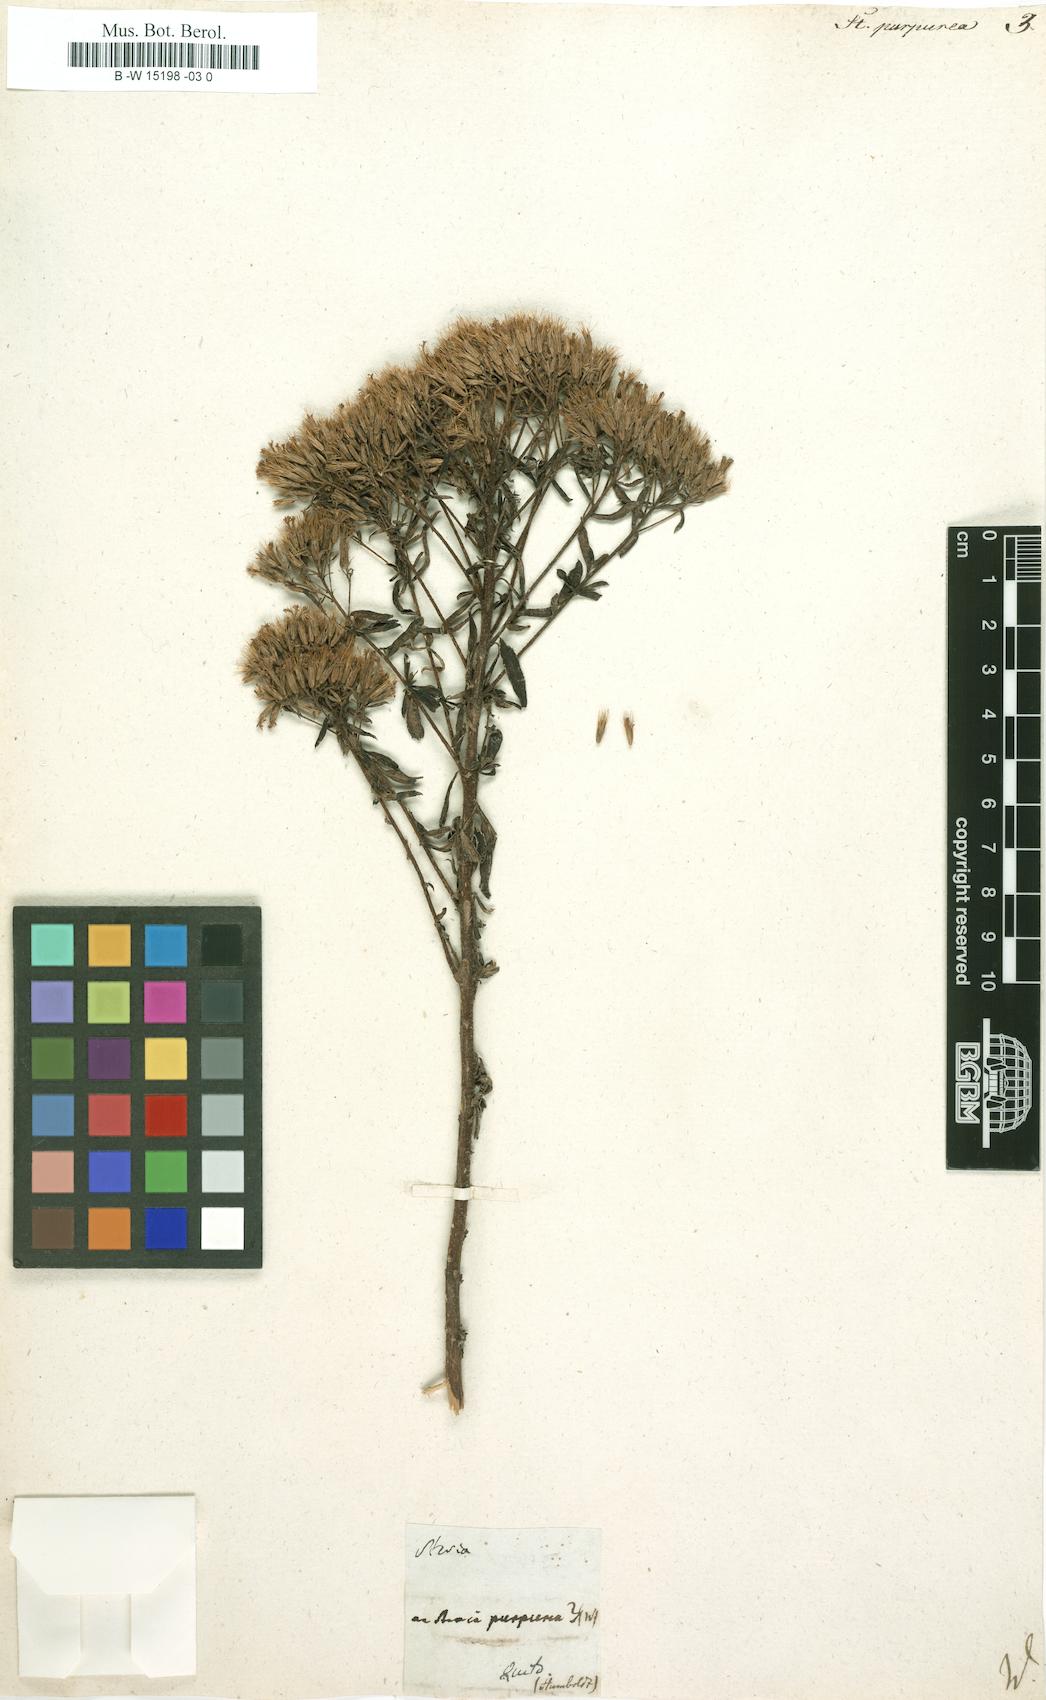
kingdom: Plantae
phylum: Tracheophyta
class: Magnoliopsida
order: Asterales
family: Asteraceae
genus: Stevia
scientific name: Stevia stricta
